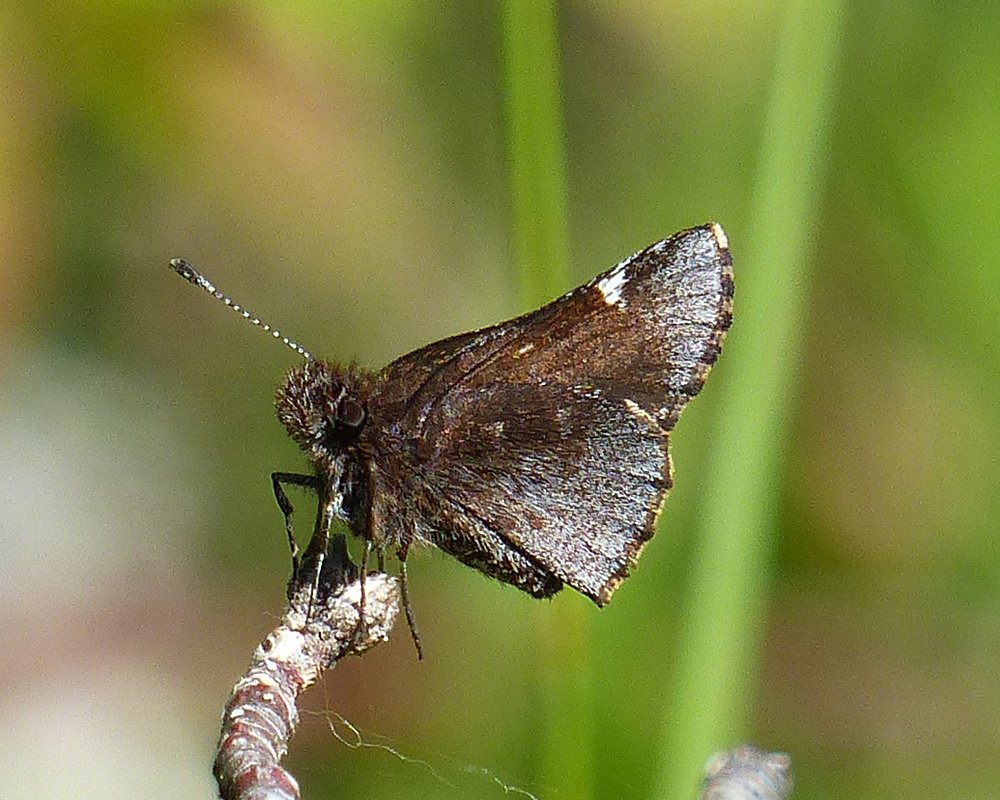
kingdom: Animalia
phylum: Arthropoda
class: Insecta
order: Lepidoptera
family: Hesperiidae
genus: Mastor
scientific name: Mastor vialis
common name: Common Roadside-Skipper
